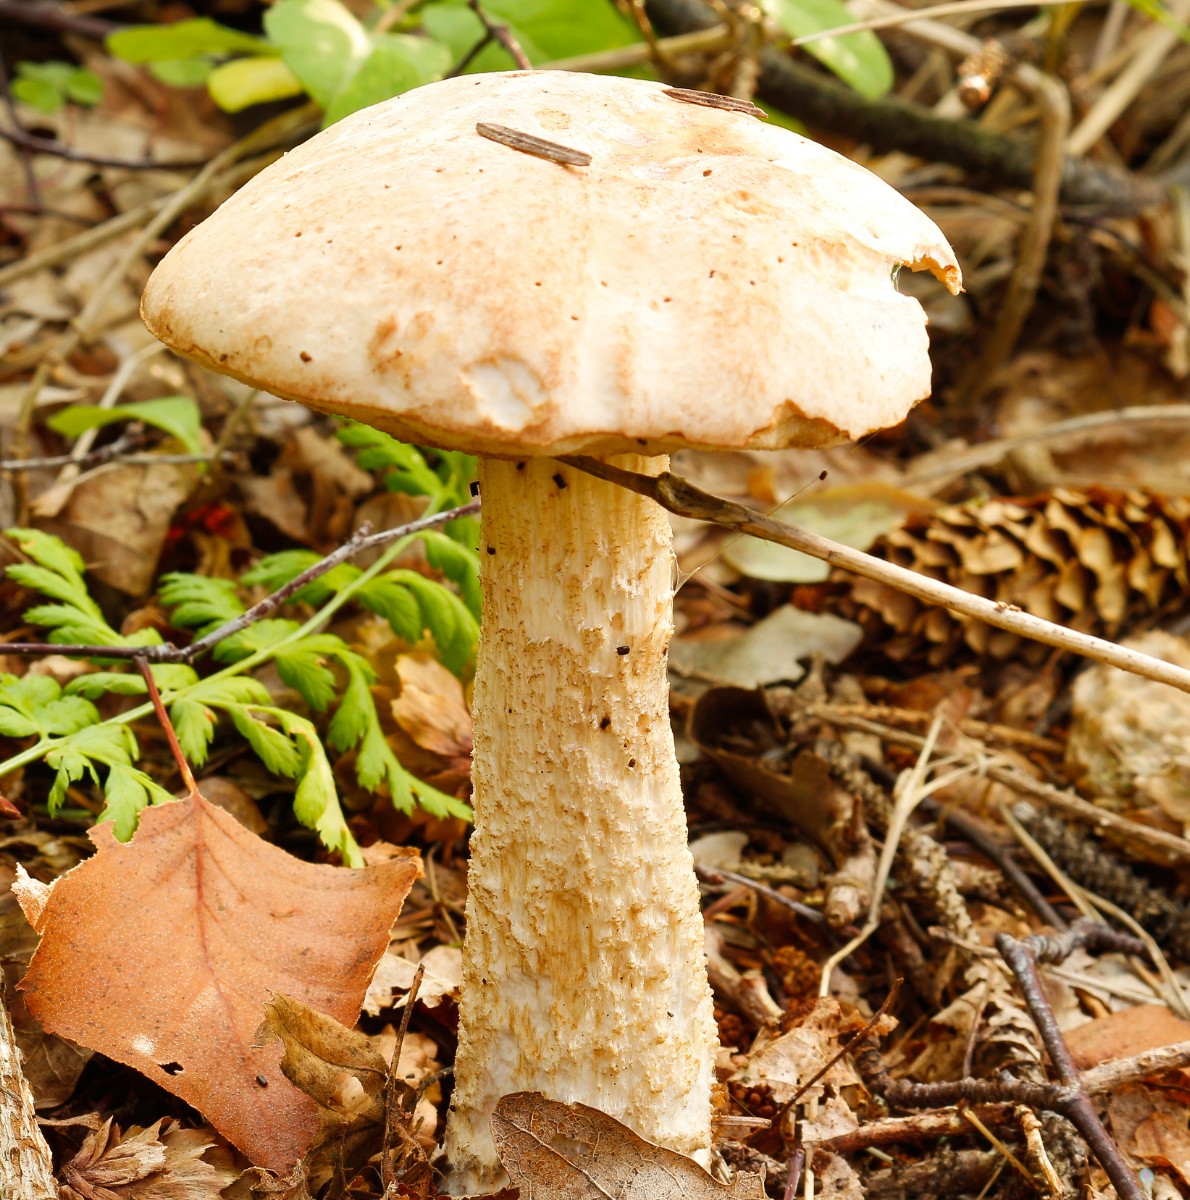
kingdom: Fungi
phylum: Basidiomycota
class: Agaricomycetes
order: Boletales
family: Boletaceae
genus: Leccinum
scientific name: Leccinum
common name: skælrørhat
